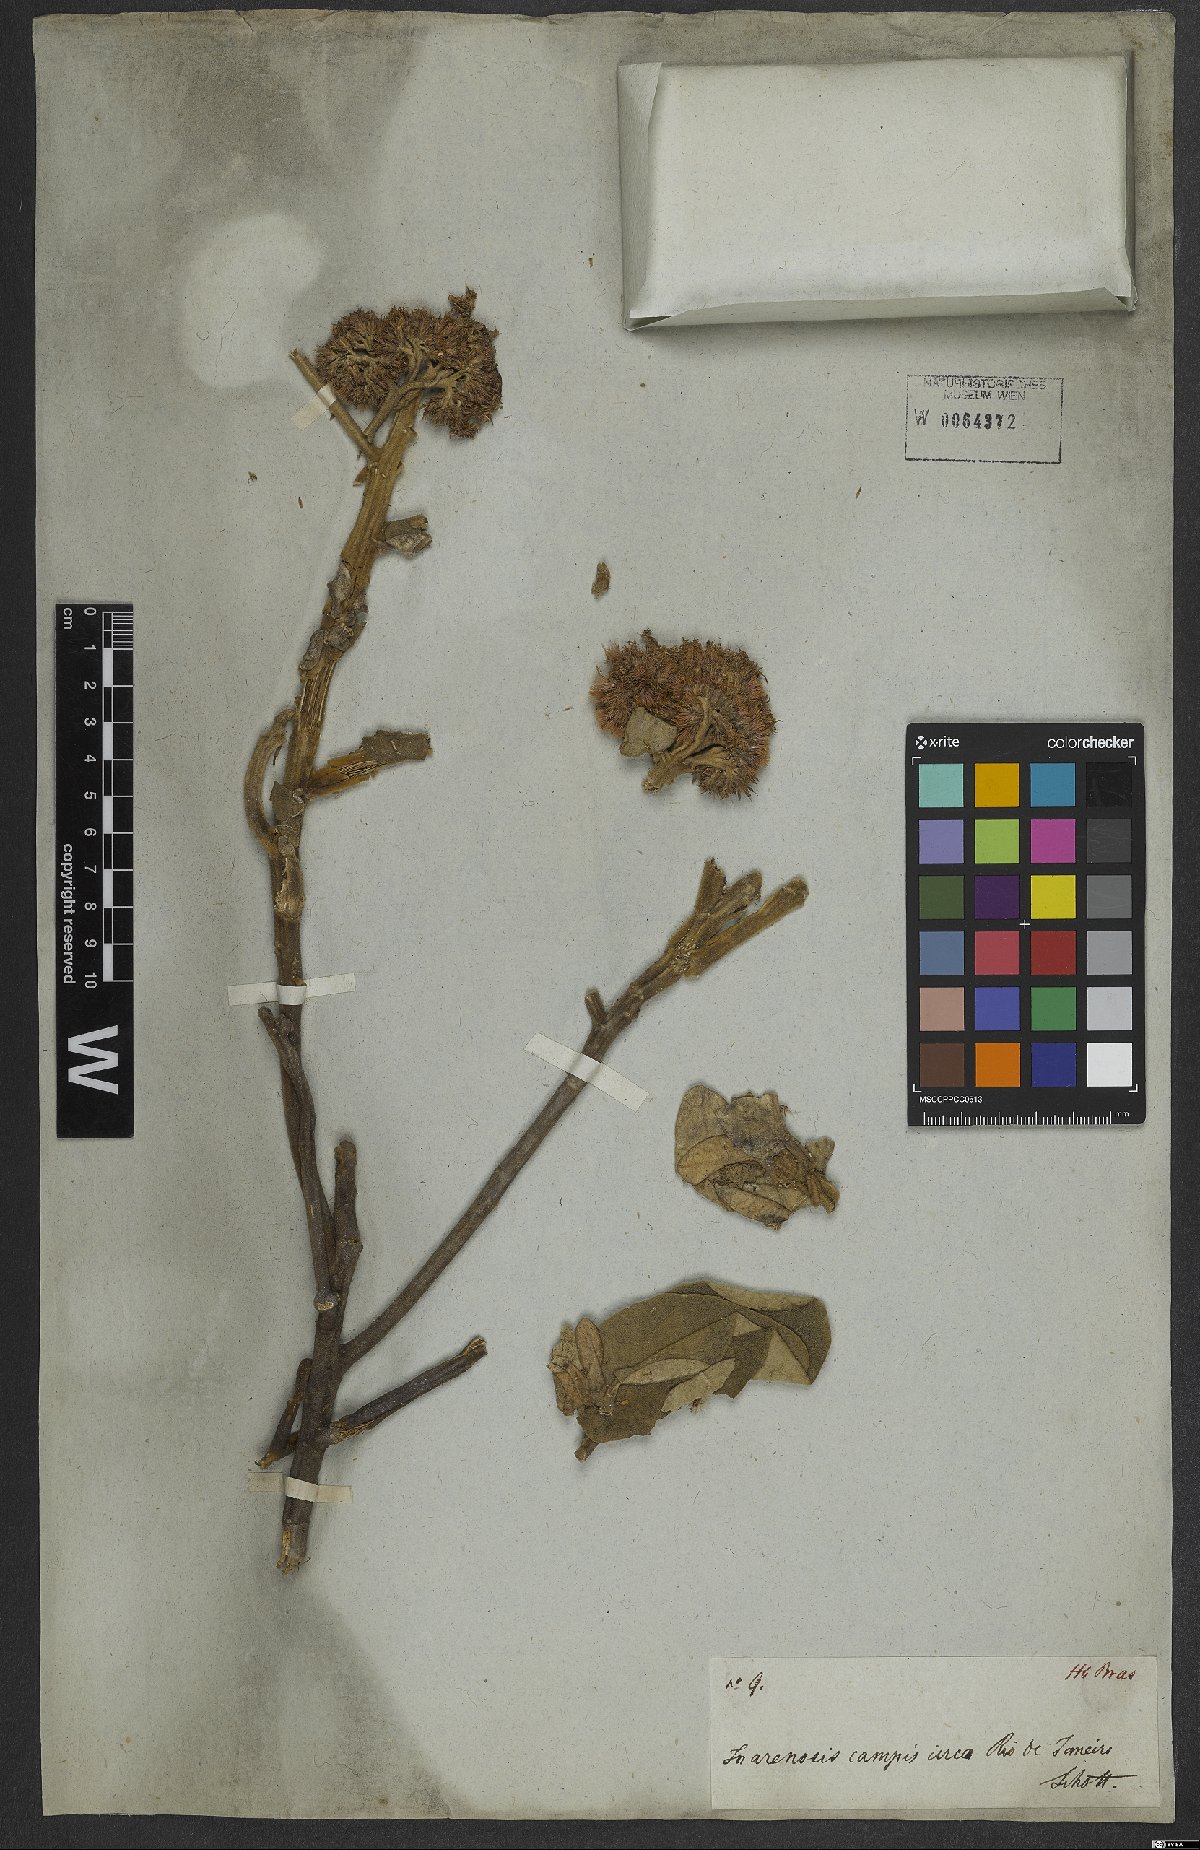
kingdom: Plantae
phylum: Tracheophyta
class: Magnoliopsida
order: Asterales
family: Asteraceae
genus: Eremanthus
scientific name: Eremanthus crotonoides
